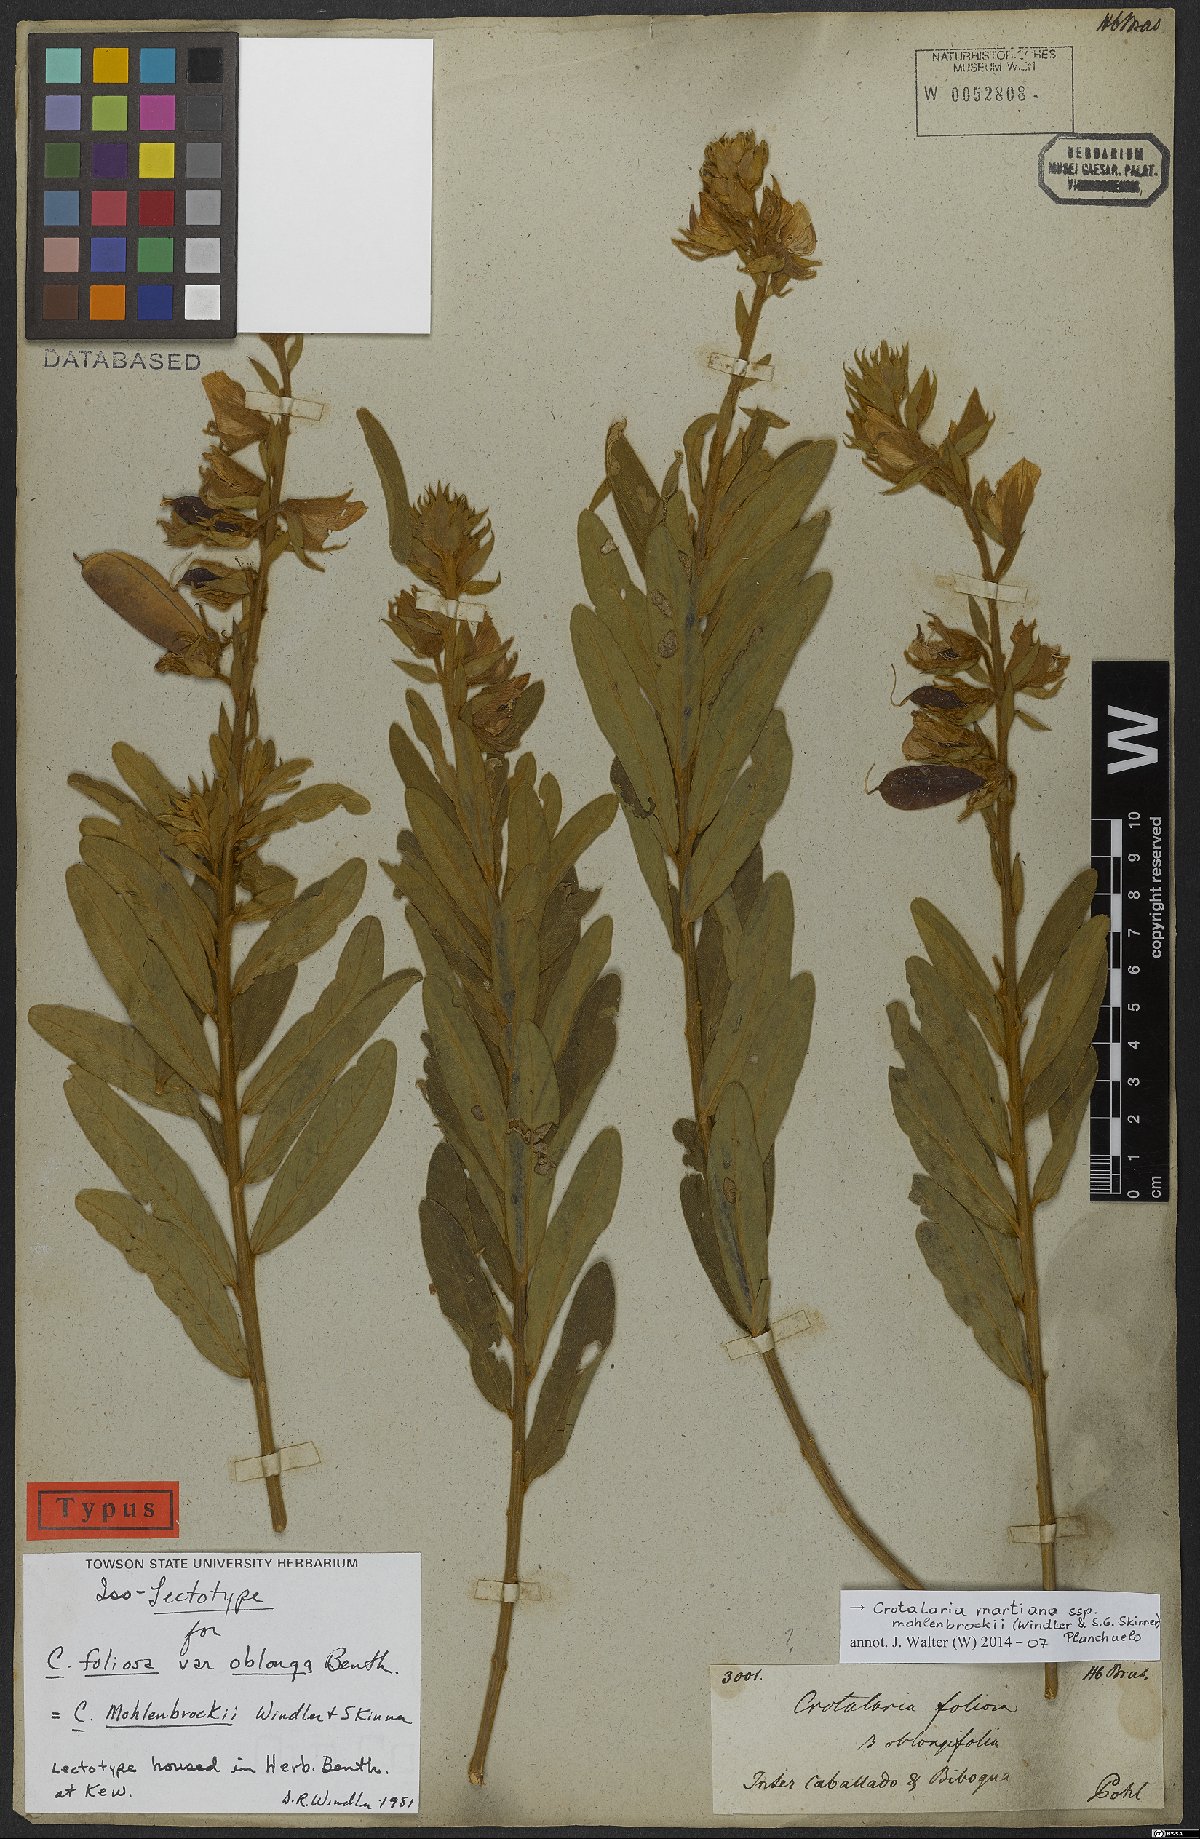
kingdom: Plantae
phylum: Tracheophyta
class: Magnoliopsida
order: Fabales
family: Fabaceae
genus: Crotalaria
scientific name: Crotalaria martiana
